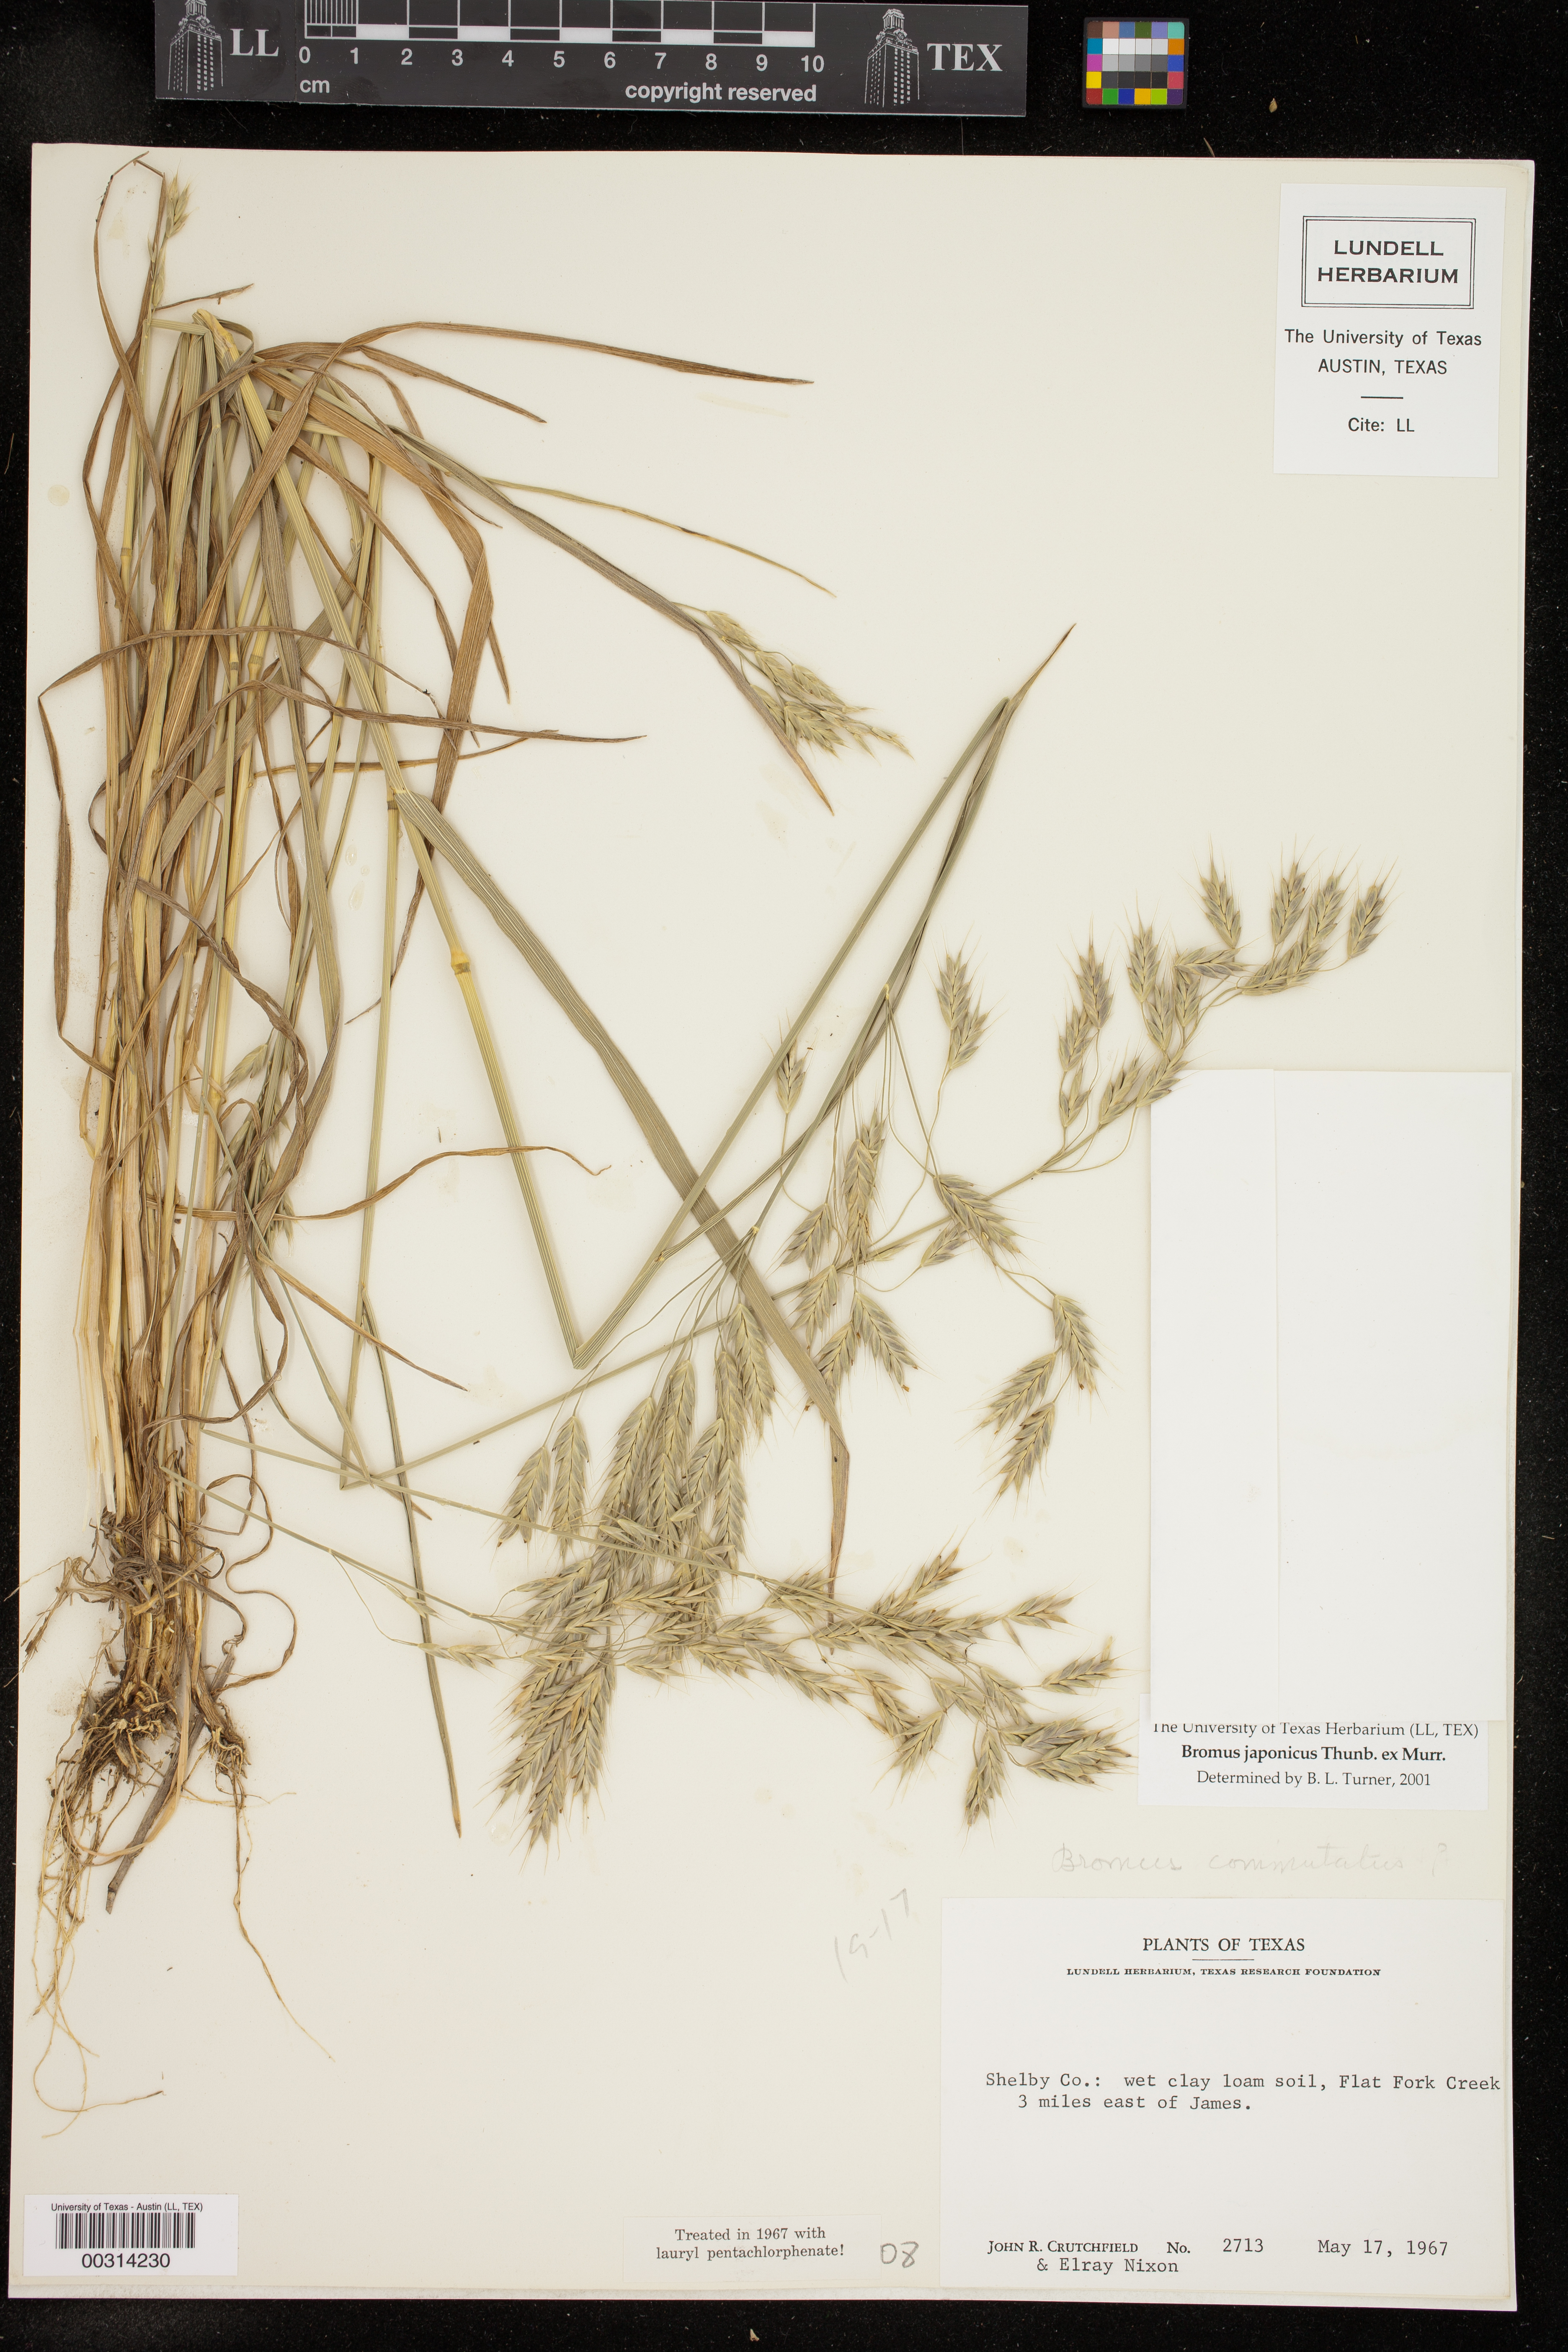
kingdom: Plantae
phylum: Tracheophyta
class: Liliopsida
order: Poales
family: Poaceae
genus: Bromus
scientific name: Bromus japonicus
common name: Japanese brome
